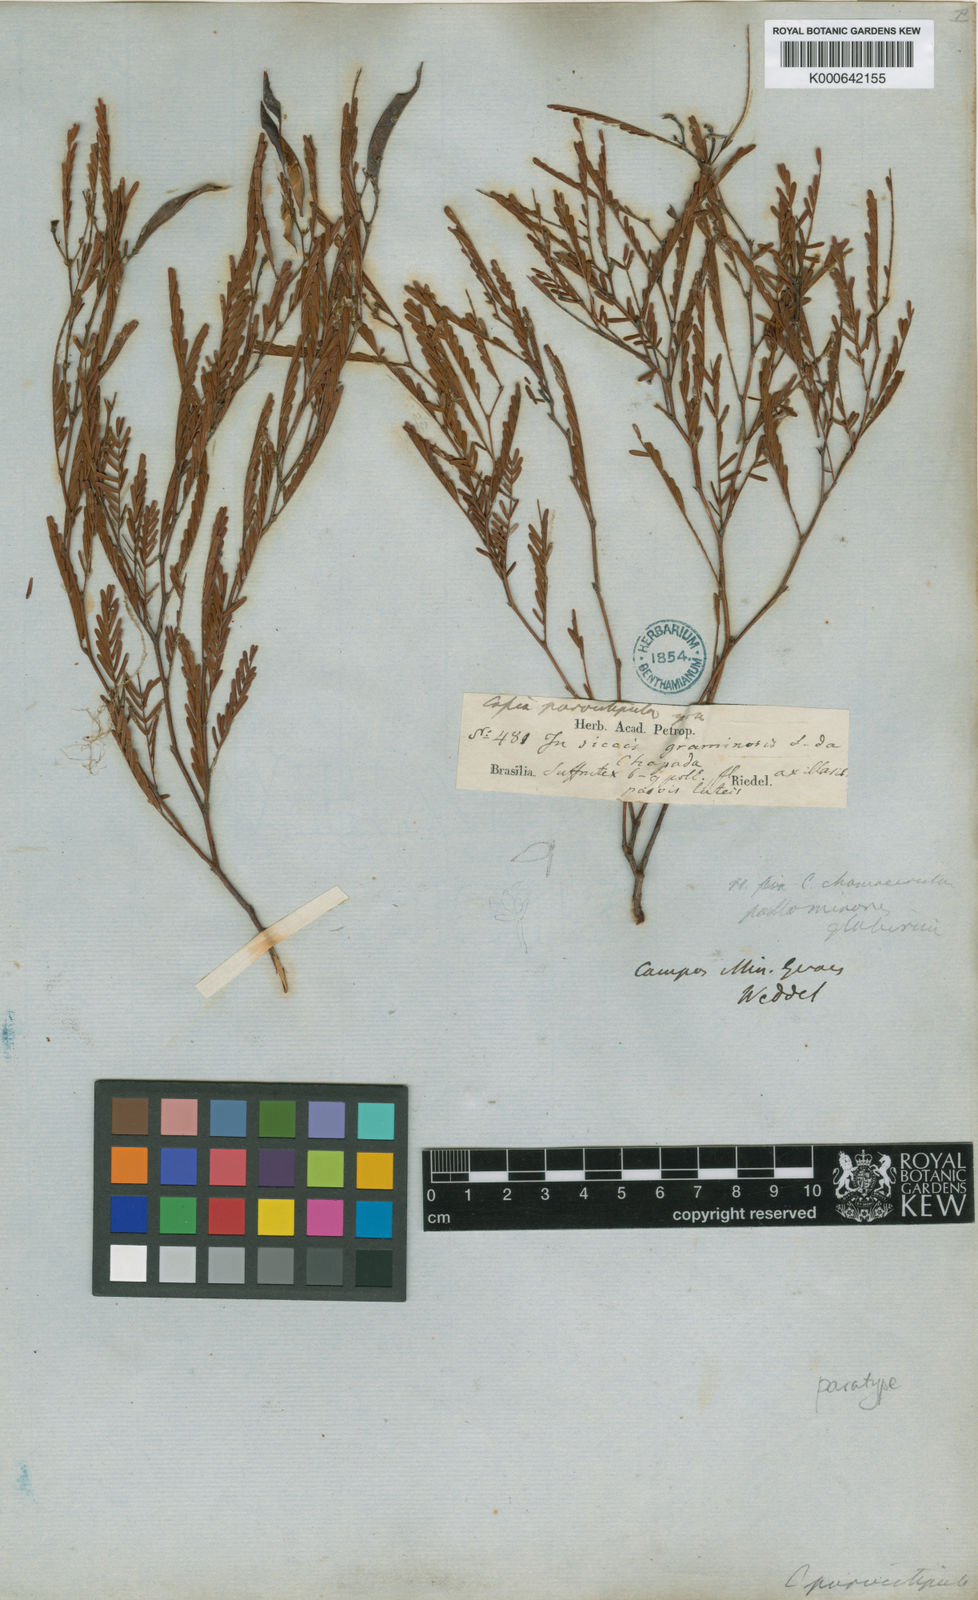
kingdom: Plantae
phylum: Tracheophyta
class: Magnoliopsida
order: Fabales
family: Fabaceae
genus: Chamaecrista
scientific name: Chamaecrista parvistipula
